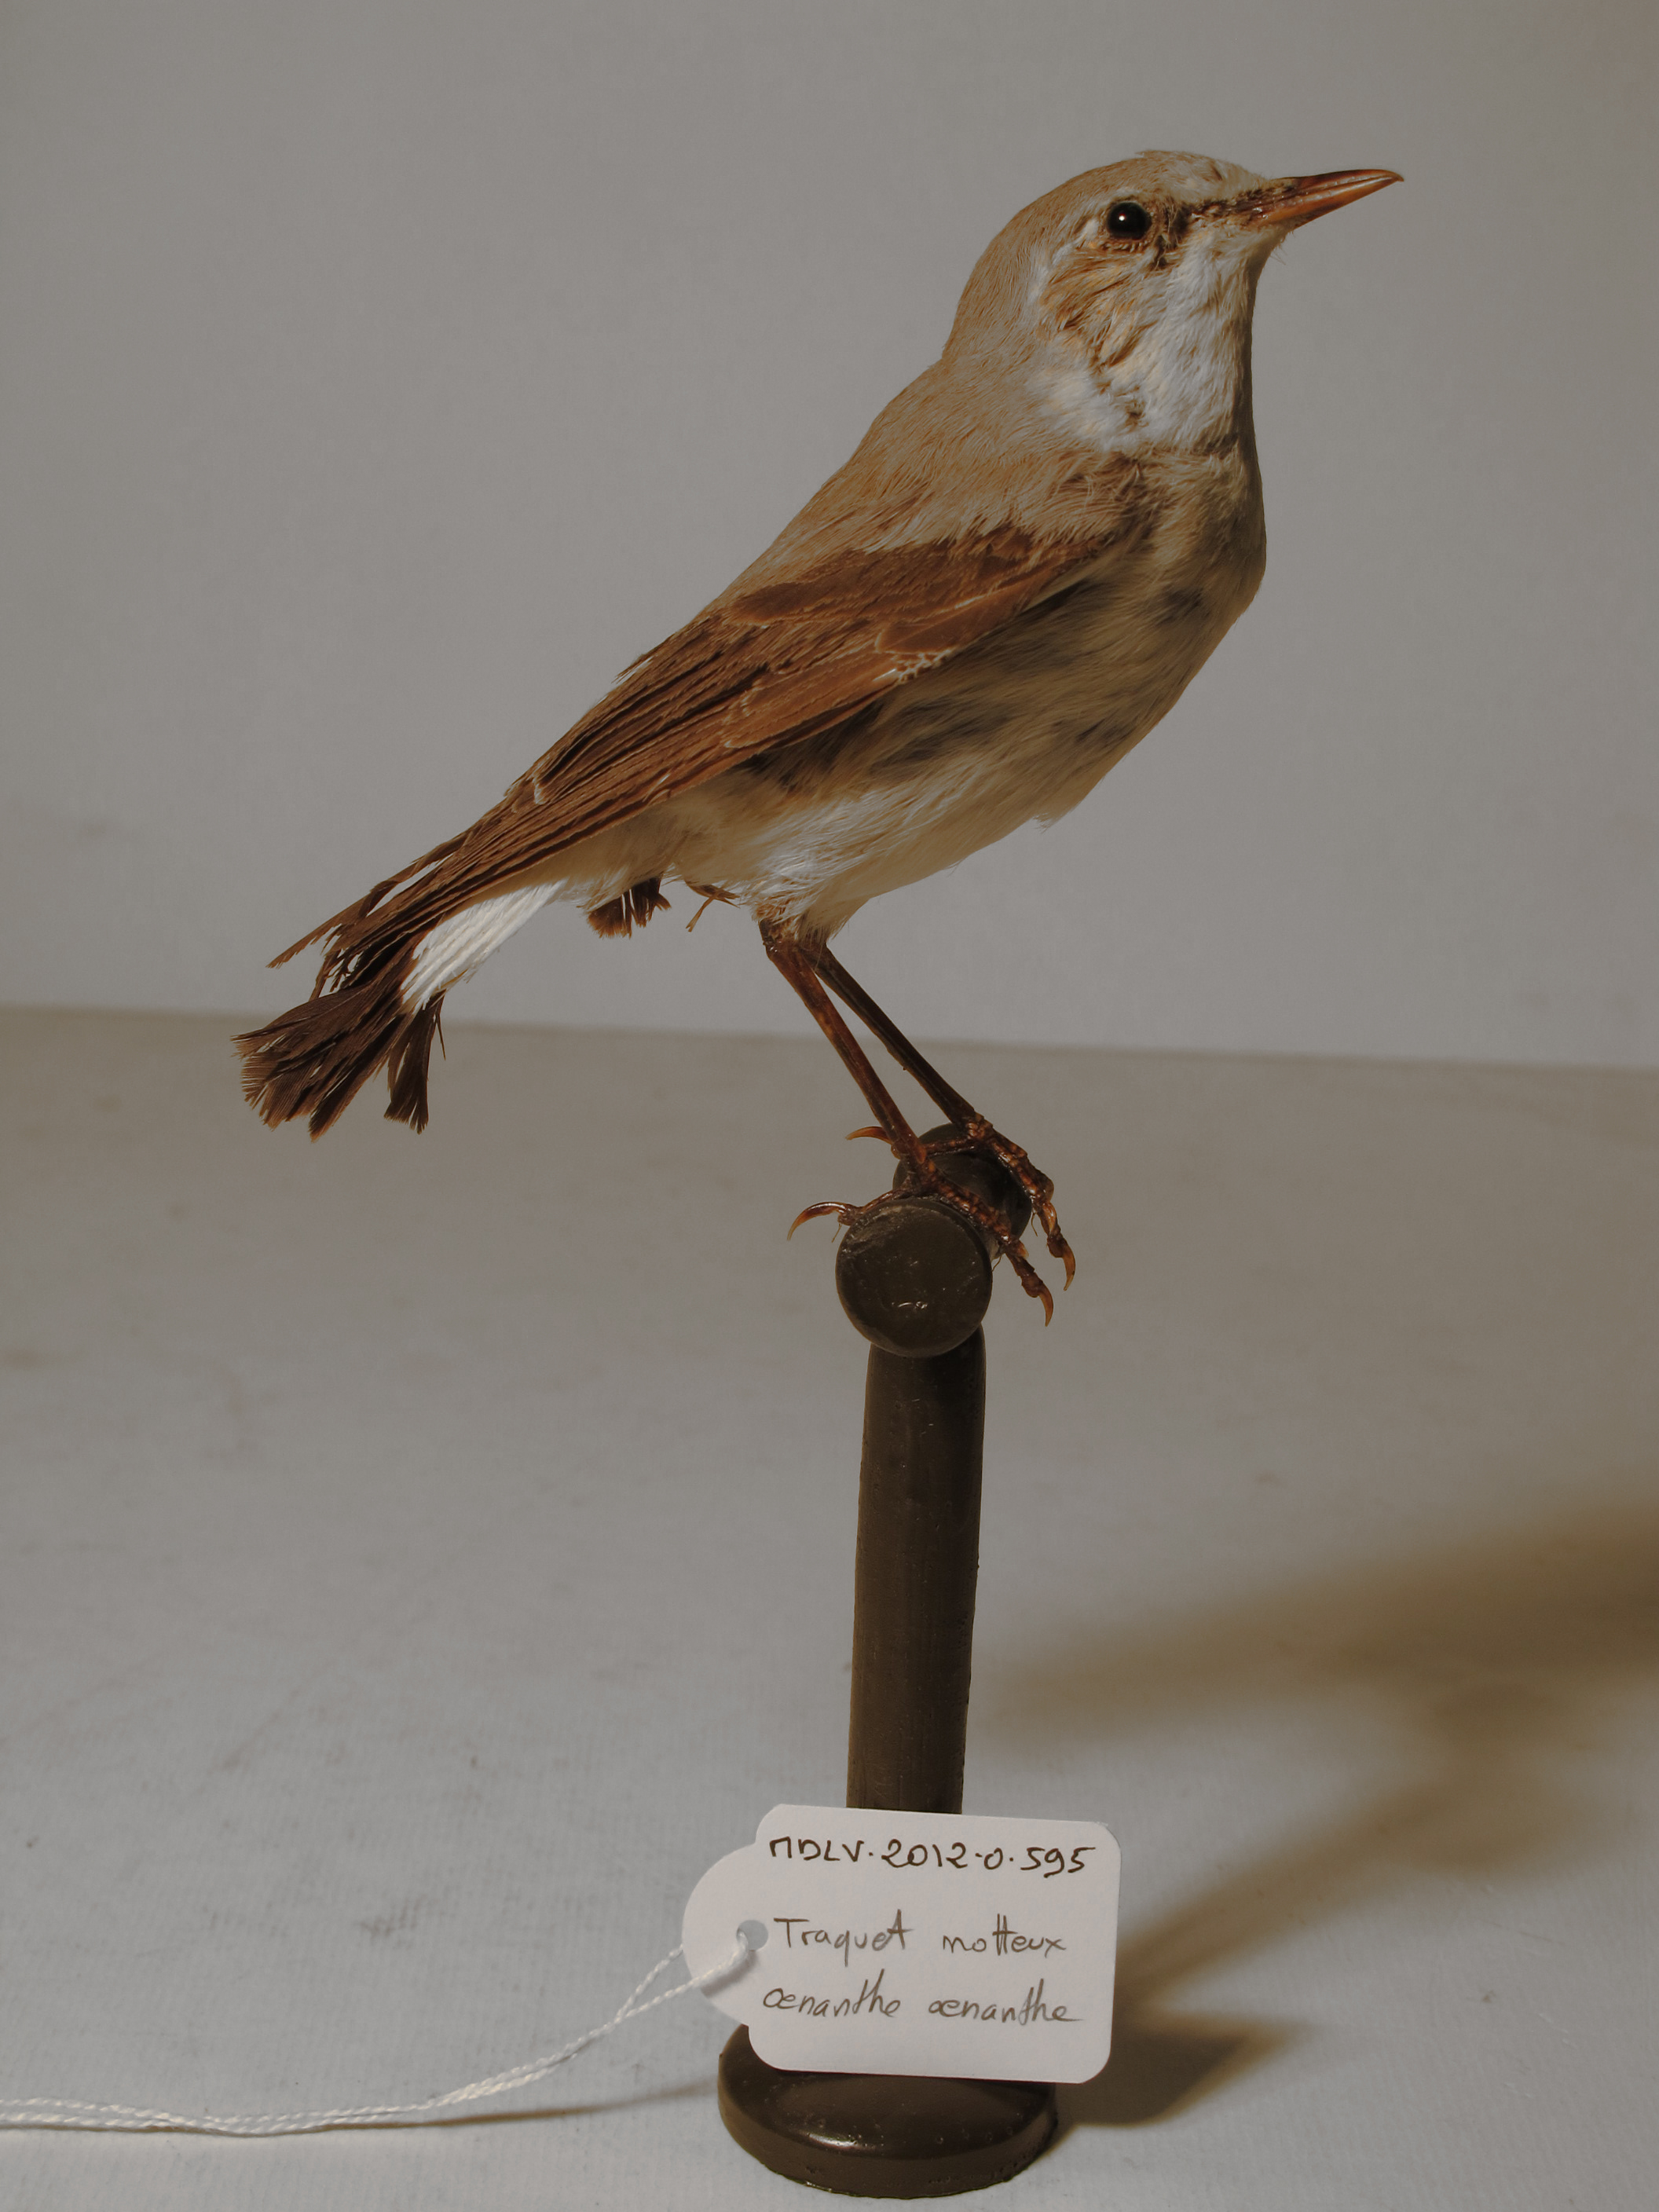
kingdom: Animalia
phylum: Chordata
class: Aves
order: Passeriformes
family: Muscicapidae
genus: Oenanthe
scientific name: Oenanthe oenanthe
